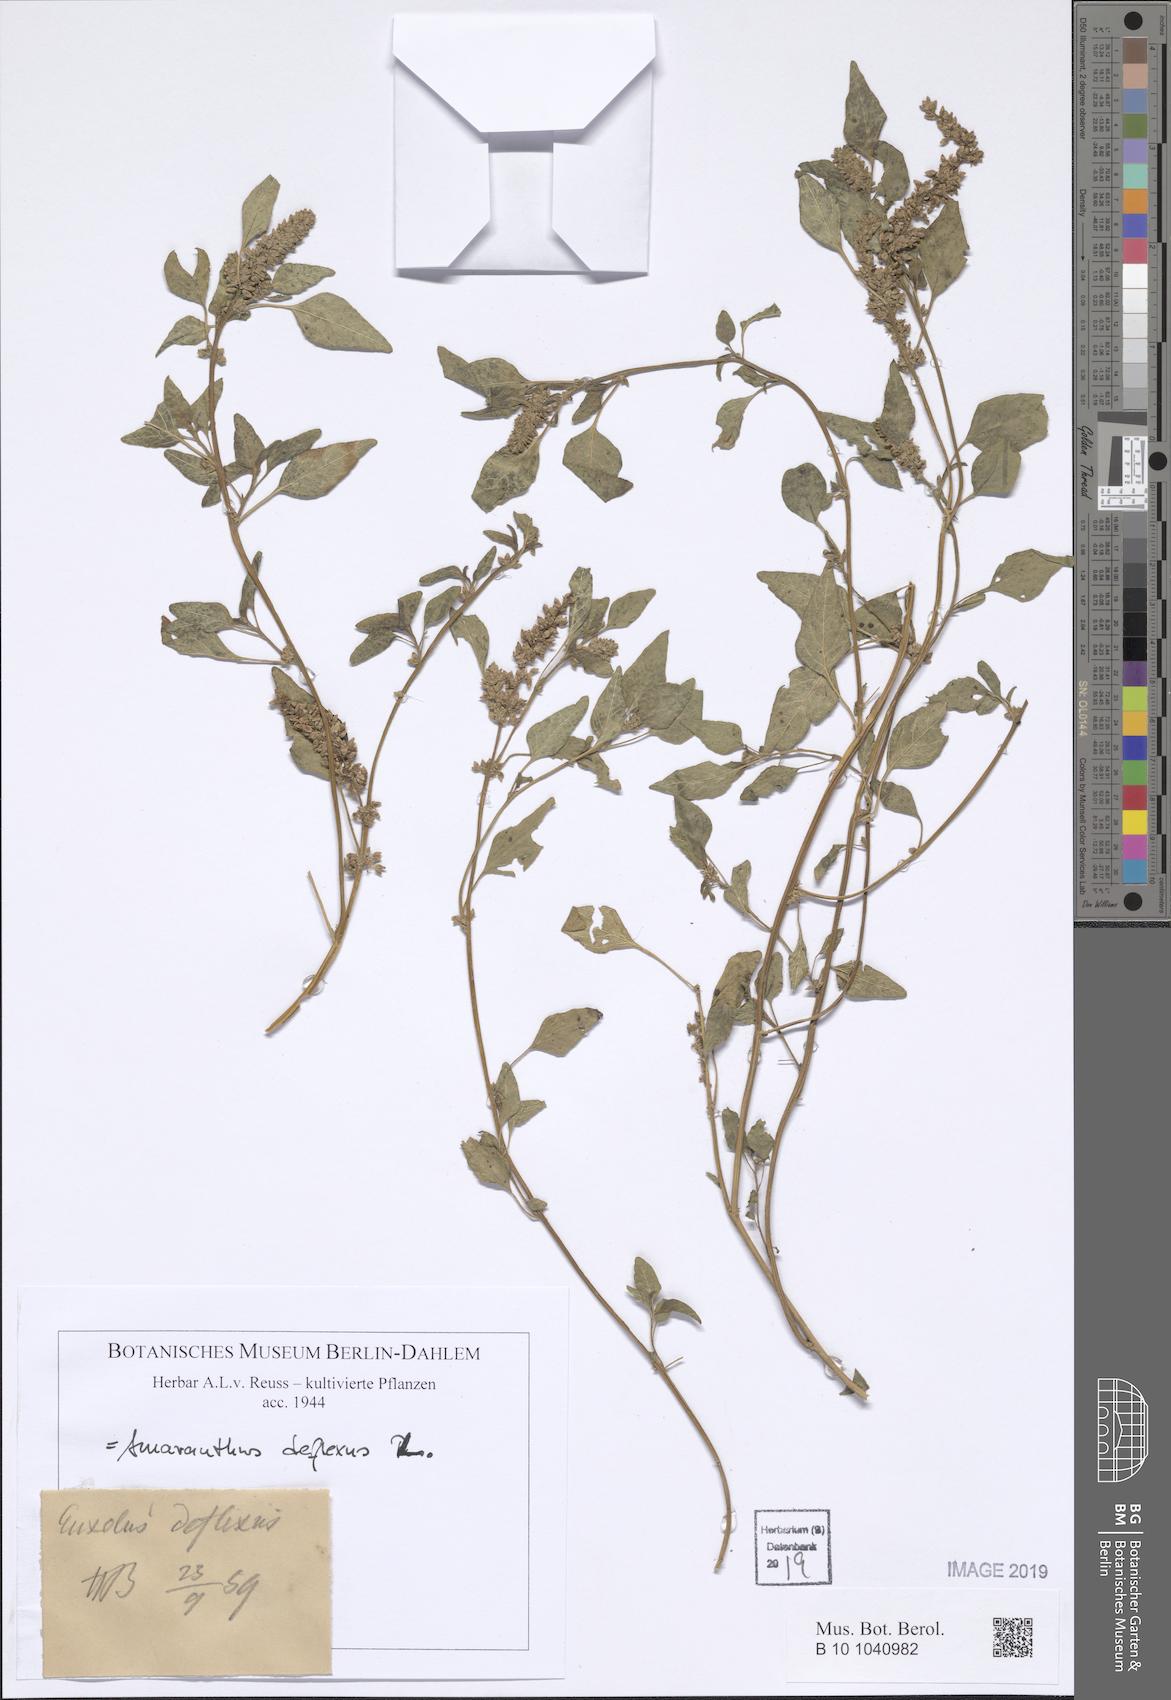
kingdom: Plantae
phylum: Tracheophyta
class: Magnoliopsida
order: Caryophyllales
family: Amaranthaceae
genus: Amaranthus
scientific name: Amaranthus deflexus
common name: Perennial pigweed
